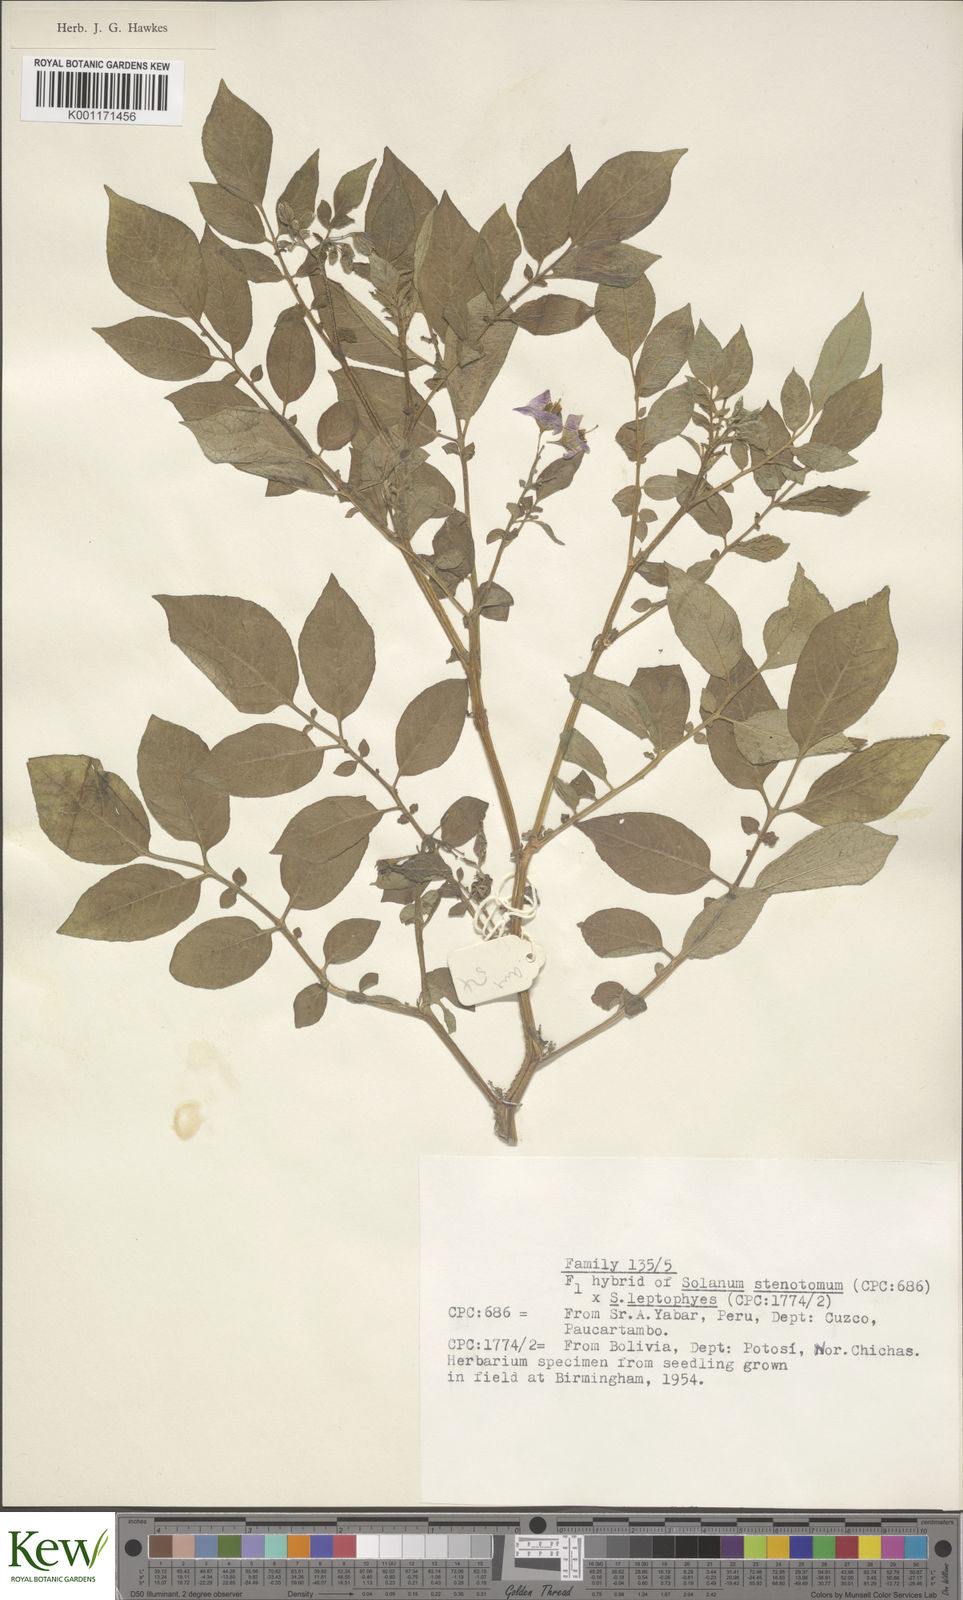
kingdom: Plantae
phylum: Tracheophyta
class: Magnoliopsida
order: Solanales
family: Solanaceae
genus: Solanum
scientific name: Solanum tuberosum
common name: Potato
